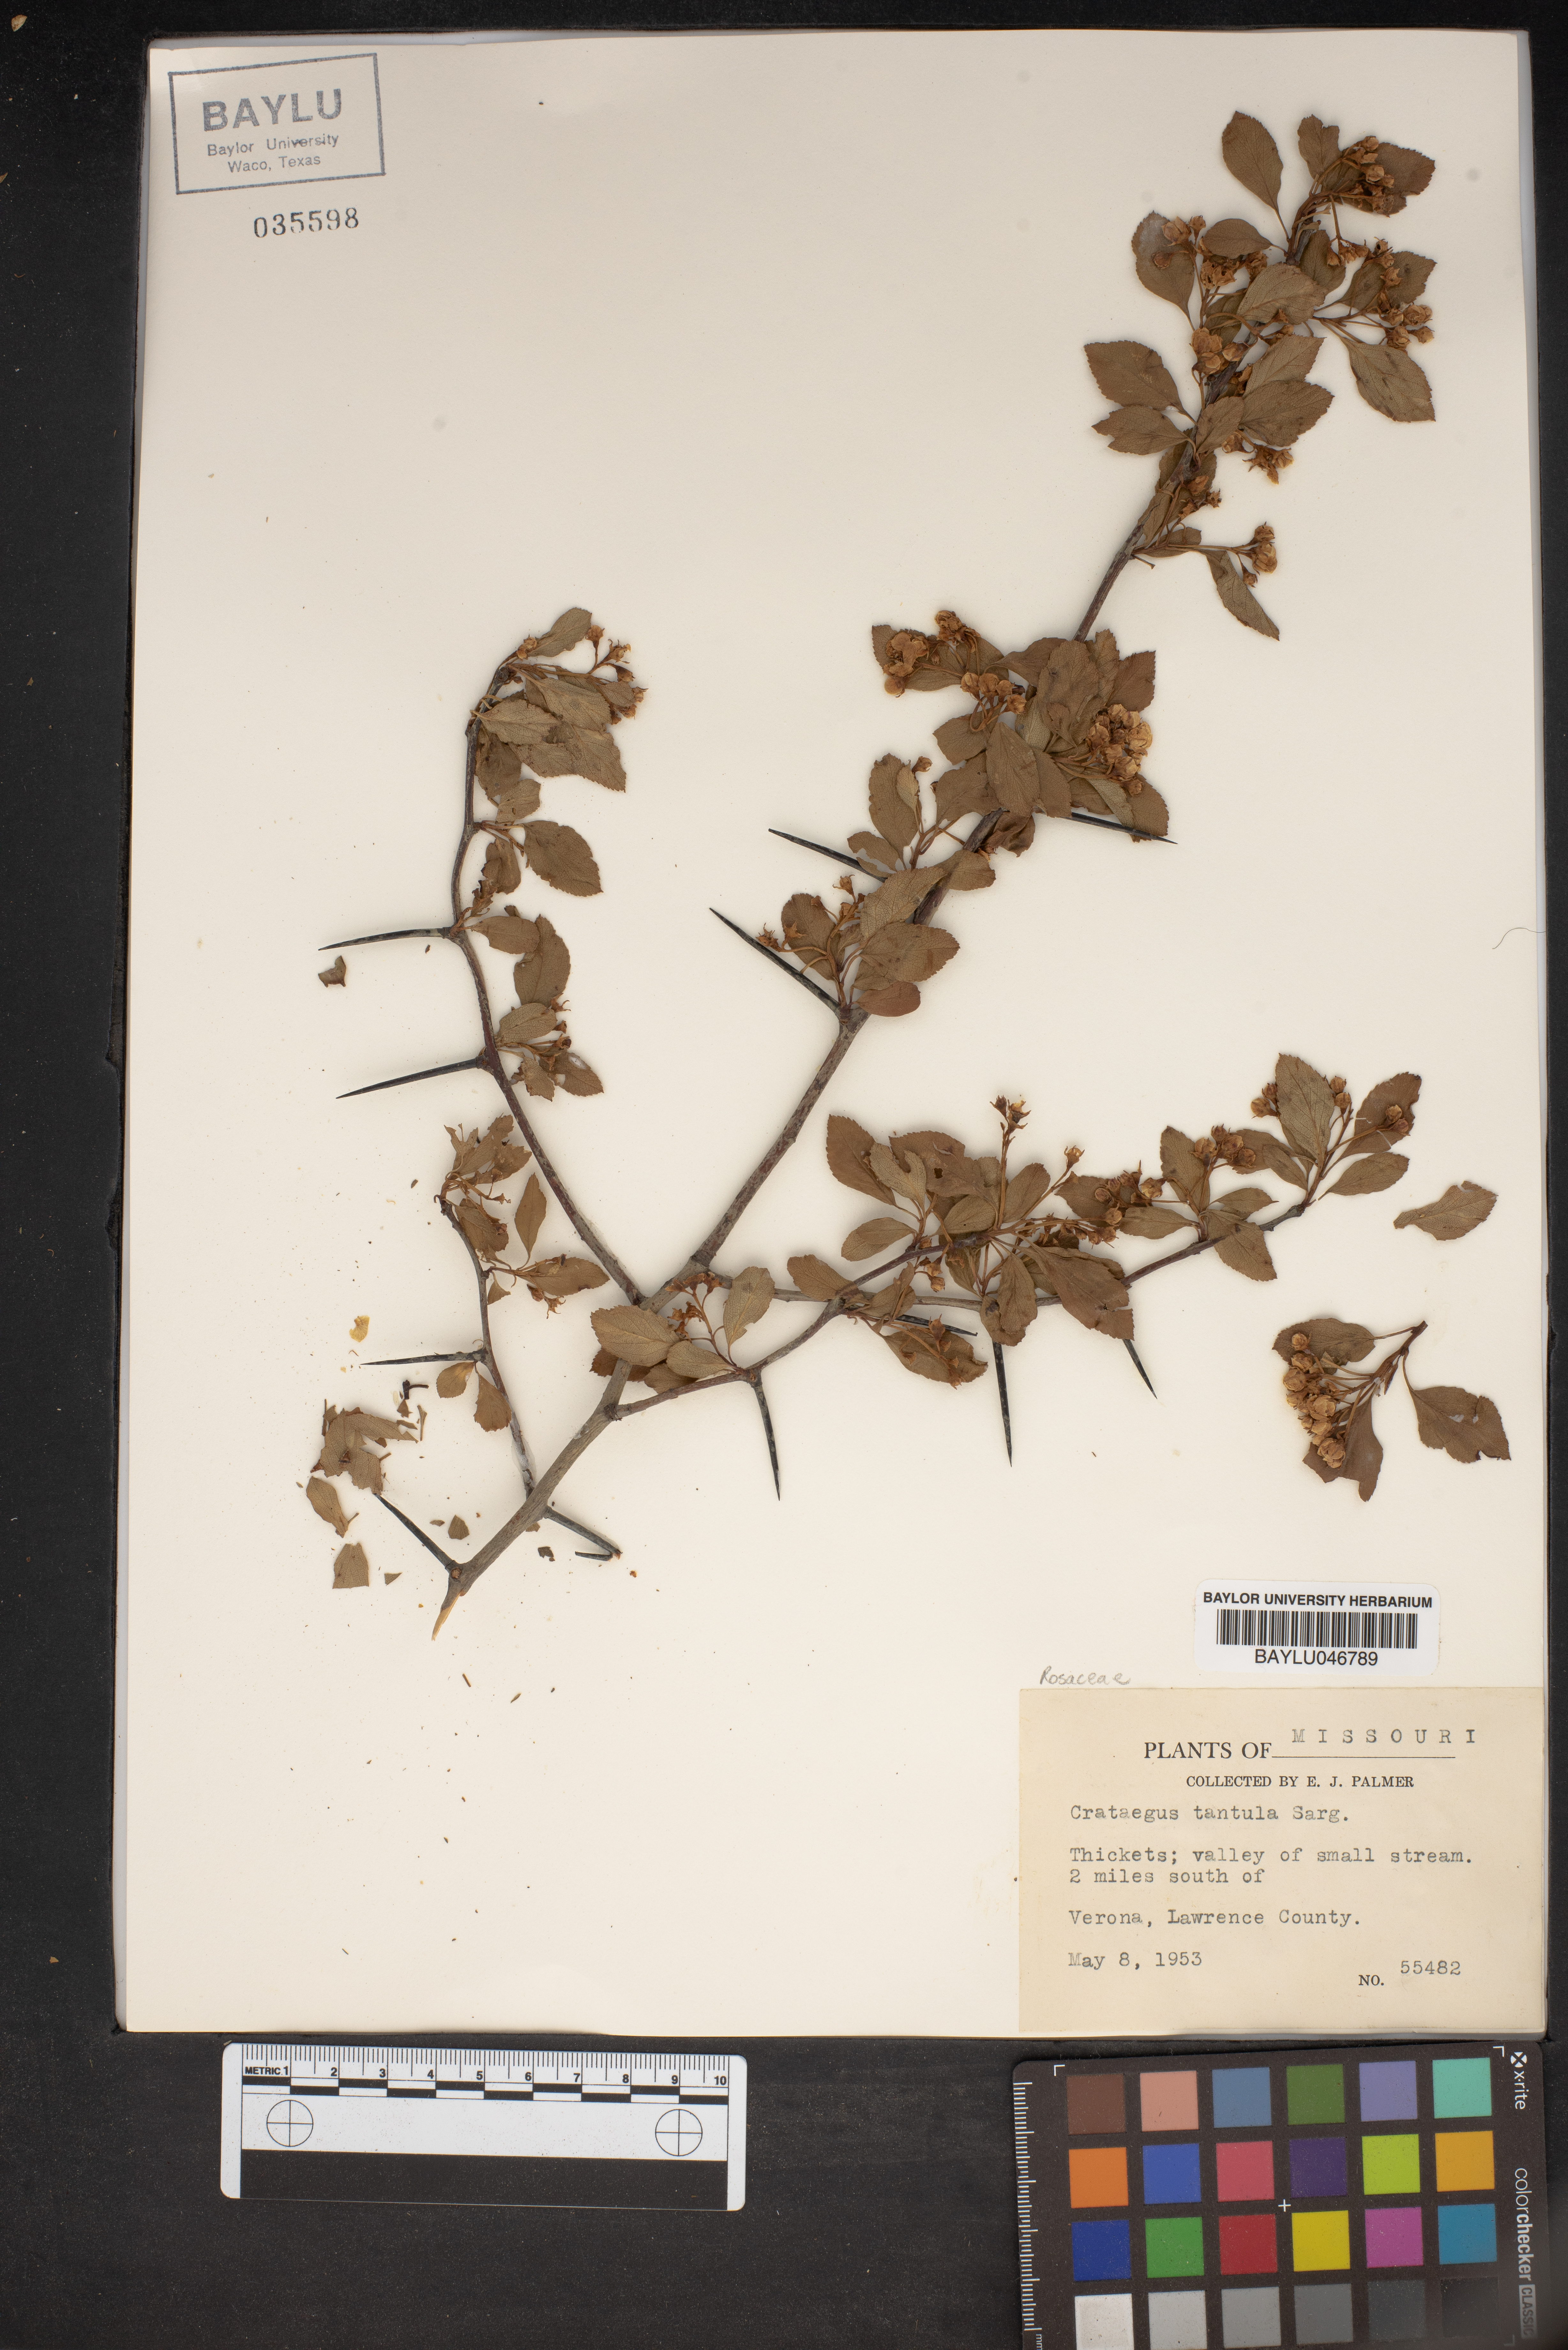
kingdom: Plantae
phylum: Tracheophyta
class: Magnoliopsida
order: Rosales
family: Rosaceae
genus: Crataegus
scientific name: Crataegus crus-galli
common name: Cockspurthorn
